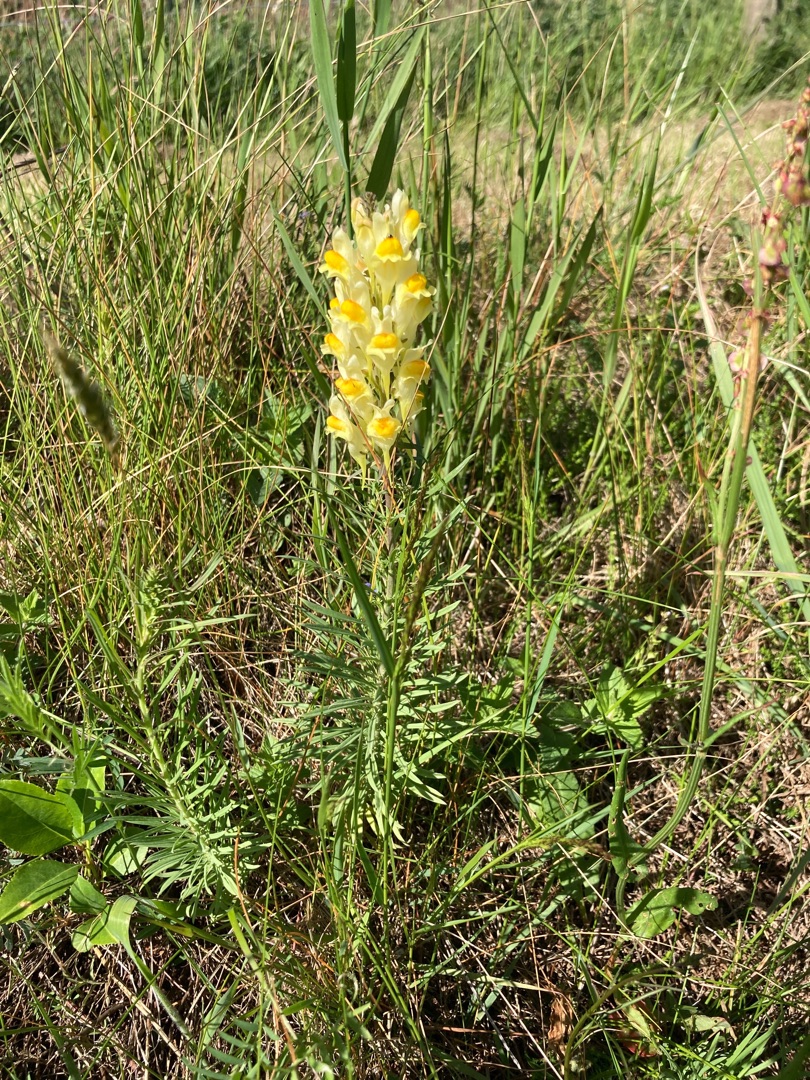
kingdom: Plantae
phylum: Tracheophyta
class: Magnoliopsida
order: Lamiales
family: Plantaginaceae
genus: Linaria
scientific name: Linaria vulgaris
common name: Almindelig torskemund
